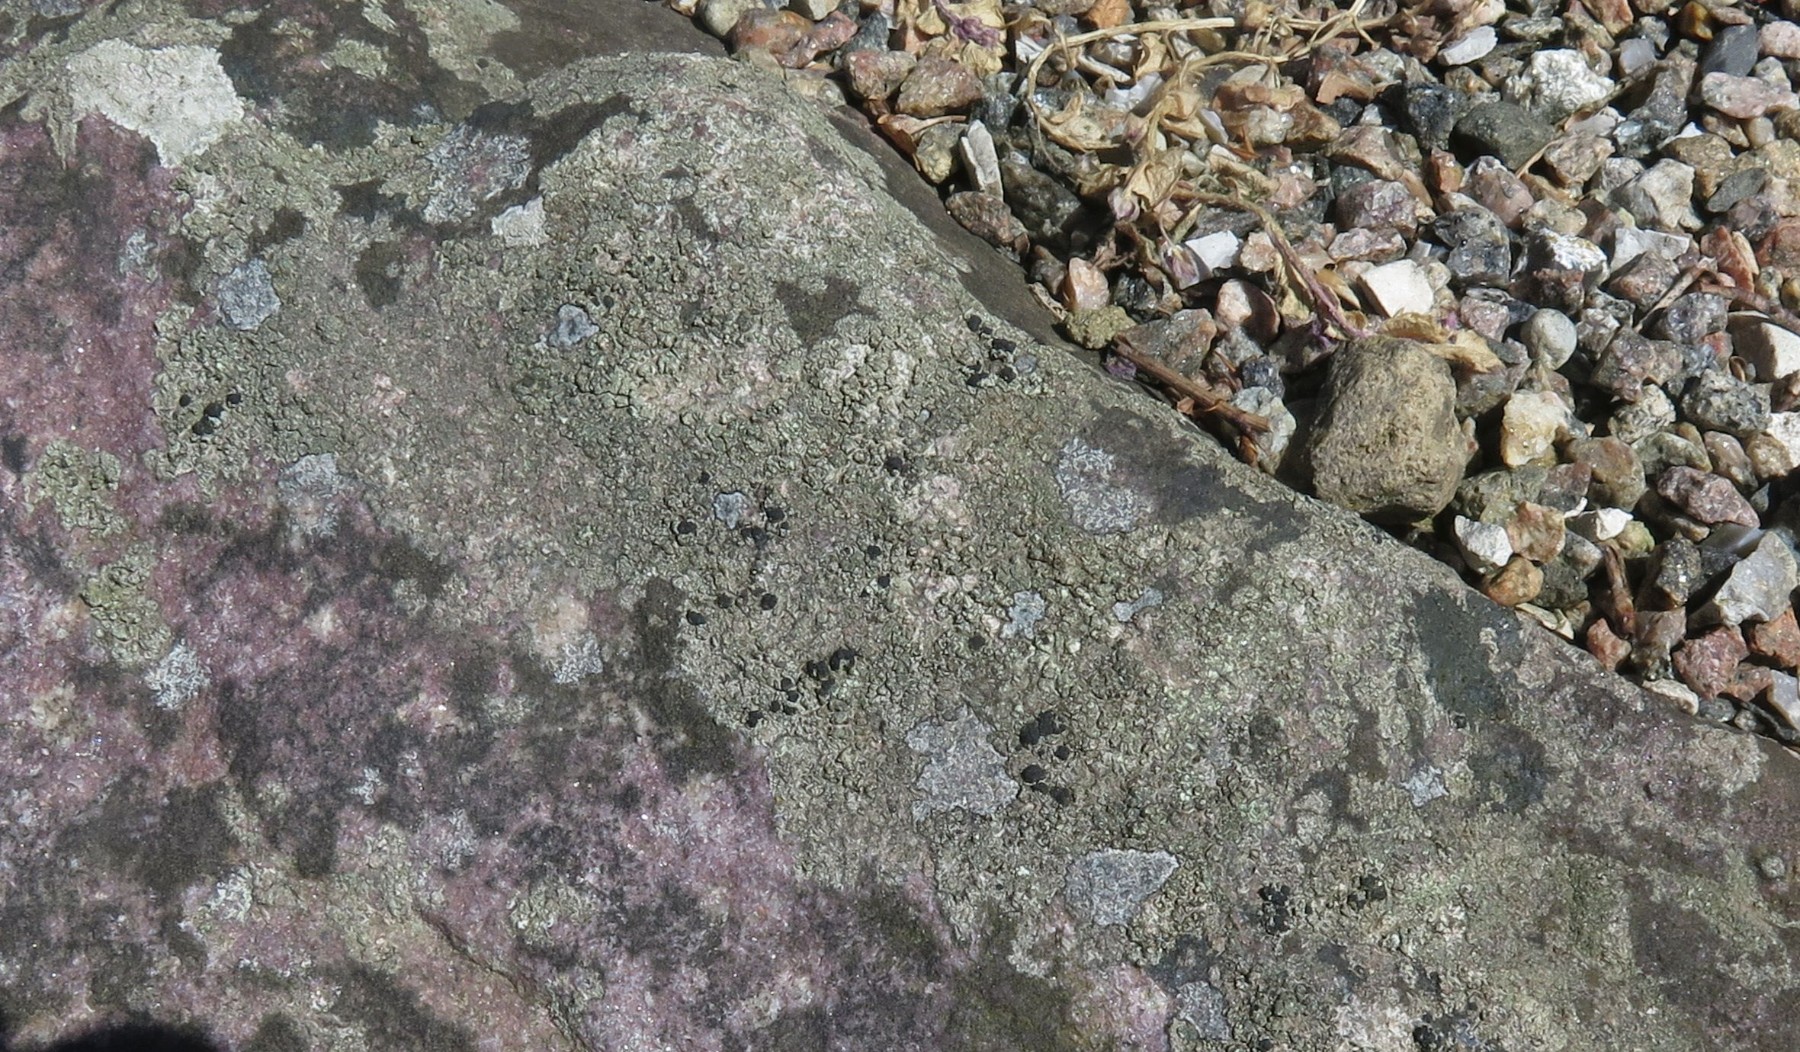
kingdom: Fungi
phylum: Ascomycota
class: Lecanoromycetes
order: Lecanorales
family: Lecanoraceae
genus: Lecidella
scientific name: Lecidella scabra
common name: skurvet skivelav
